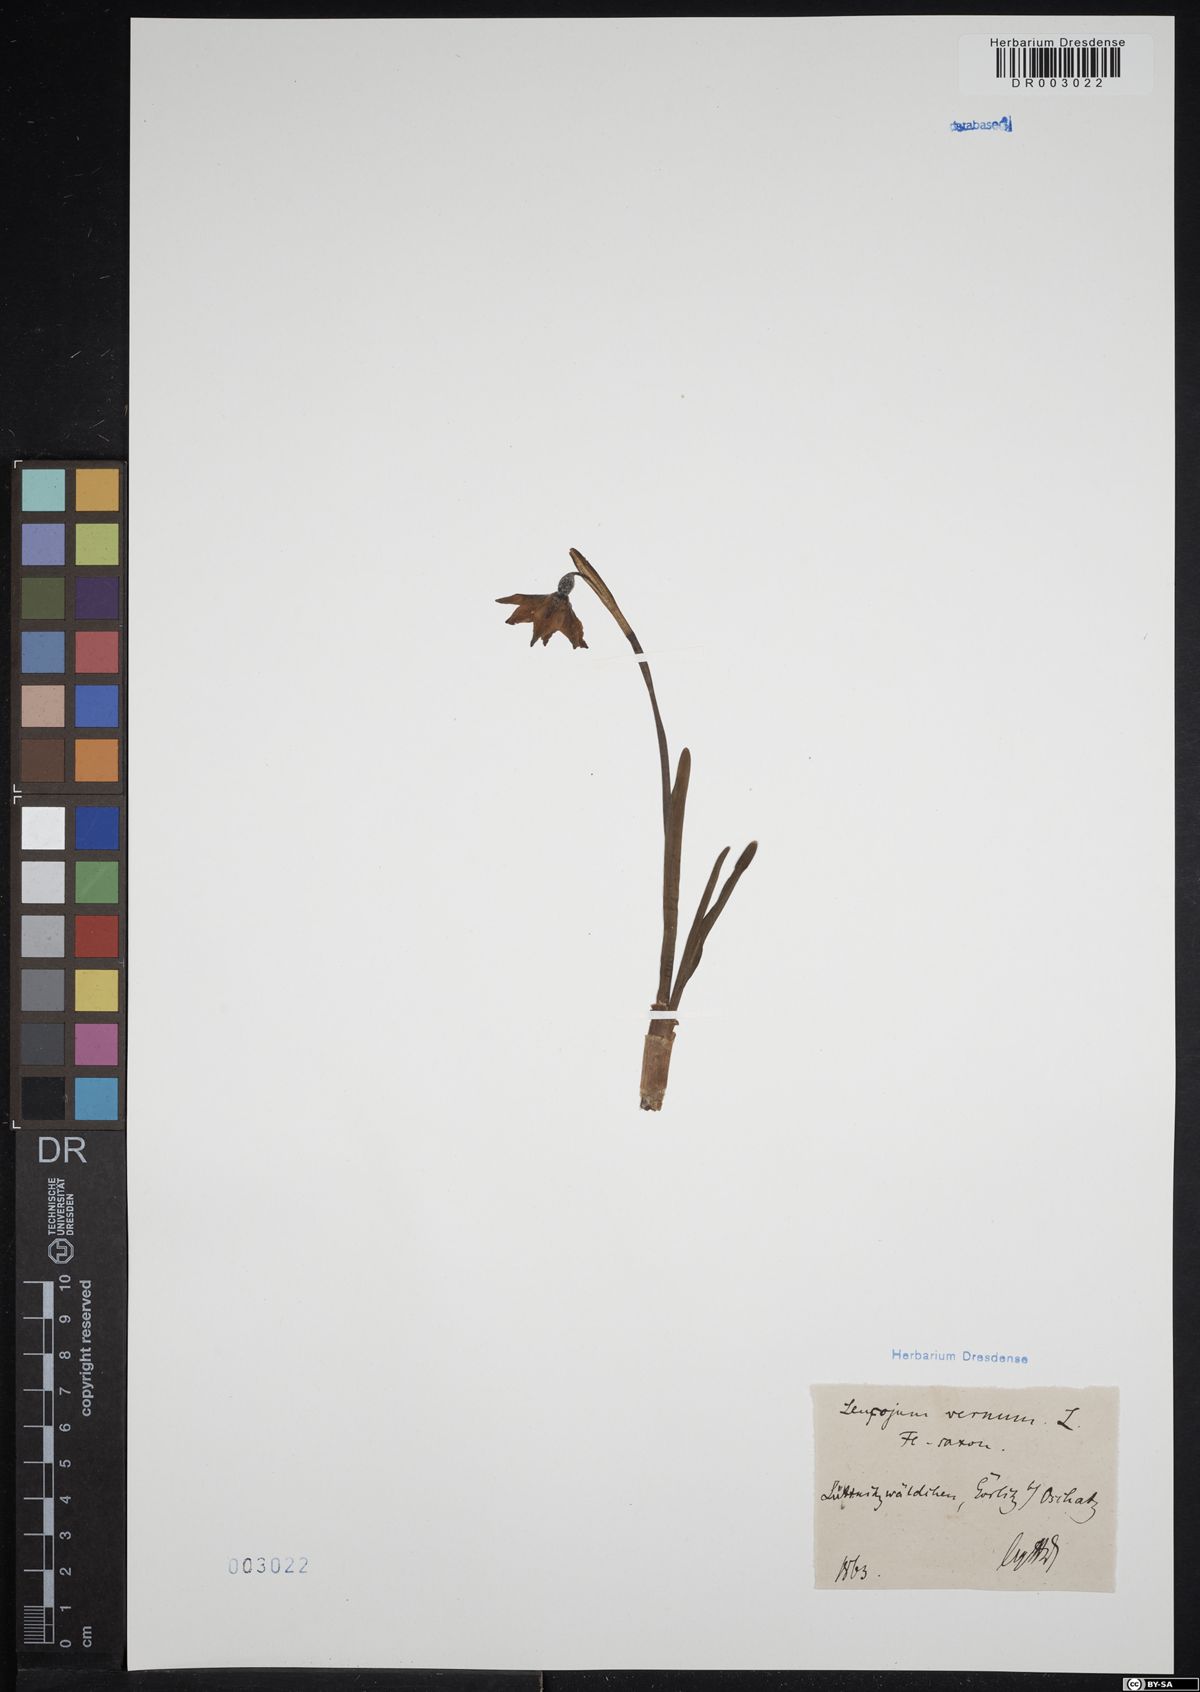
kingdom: Plantae
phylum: Tracheophyta
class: Liliopsida
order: Asparagales
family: Amaryllidaceae
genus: Leucojum
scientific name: Leucojum vernum
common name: Spring snowflake
